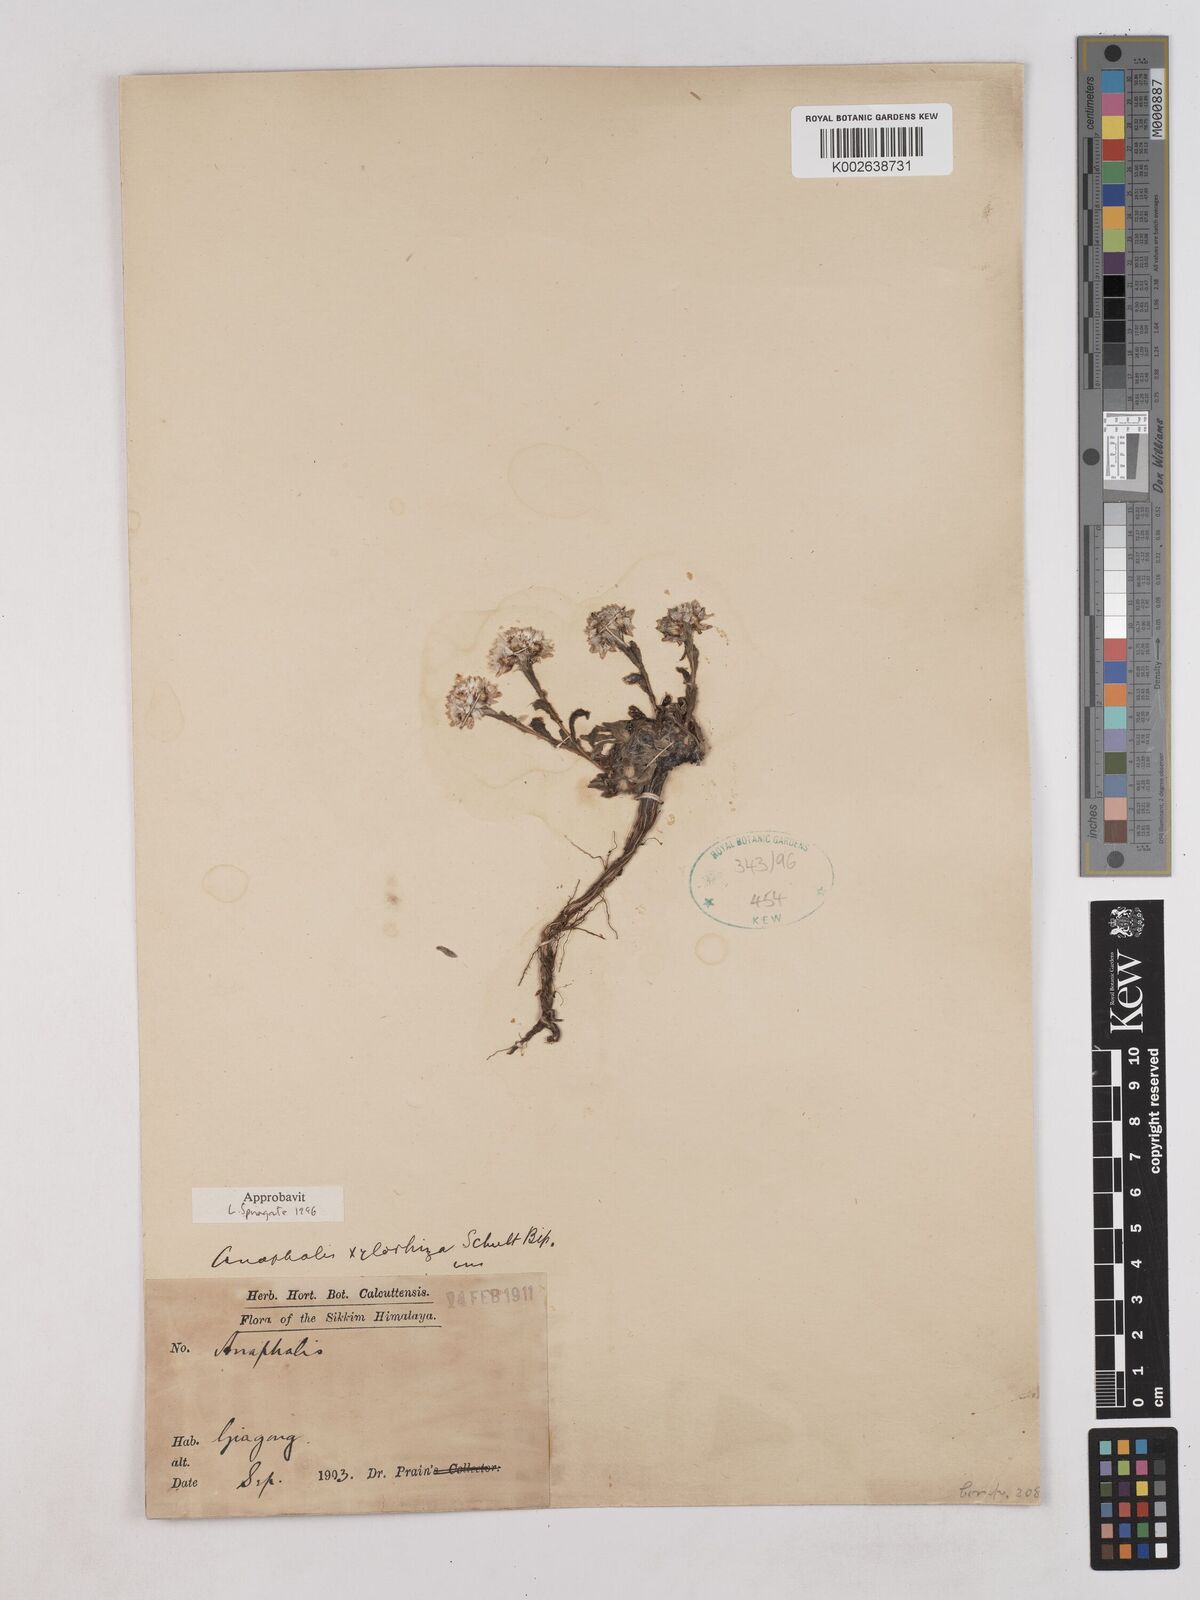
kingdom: Plantae
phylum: Tracheophyta
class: Magnoliopsida
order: Asterales
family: Asteraceae
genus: Anaphalis
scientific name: Anaphalis xylorhiza
